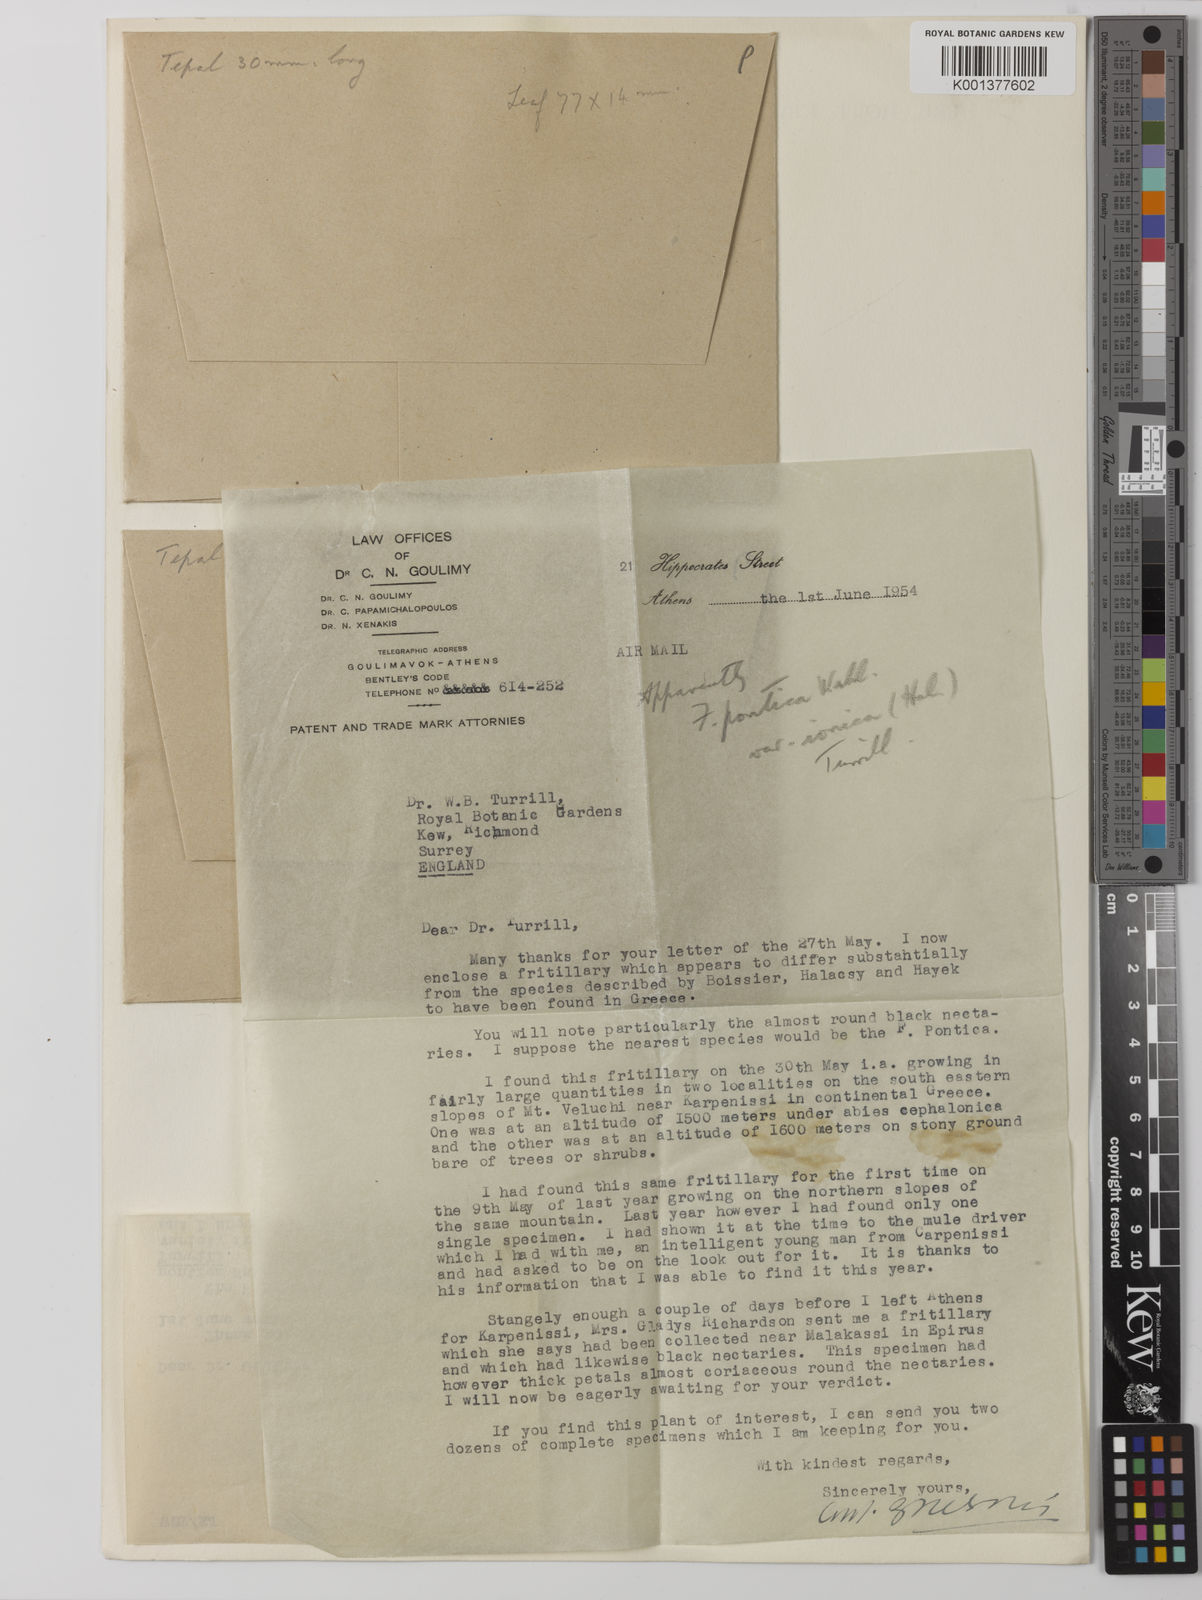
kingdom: Plantae
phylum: Tracheophyta
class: Liliopsida
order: Liliales
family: Liliaceae
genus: Fritillaria
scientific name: Fritillaria pontica
